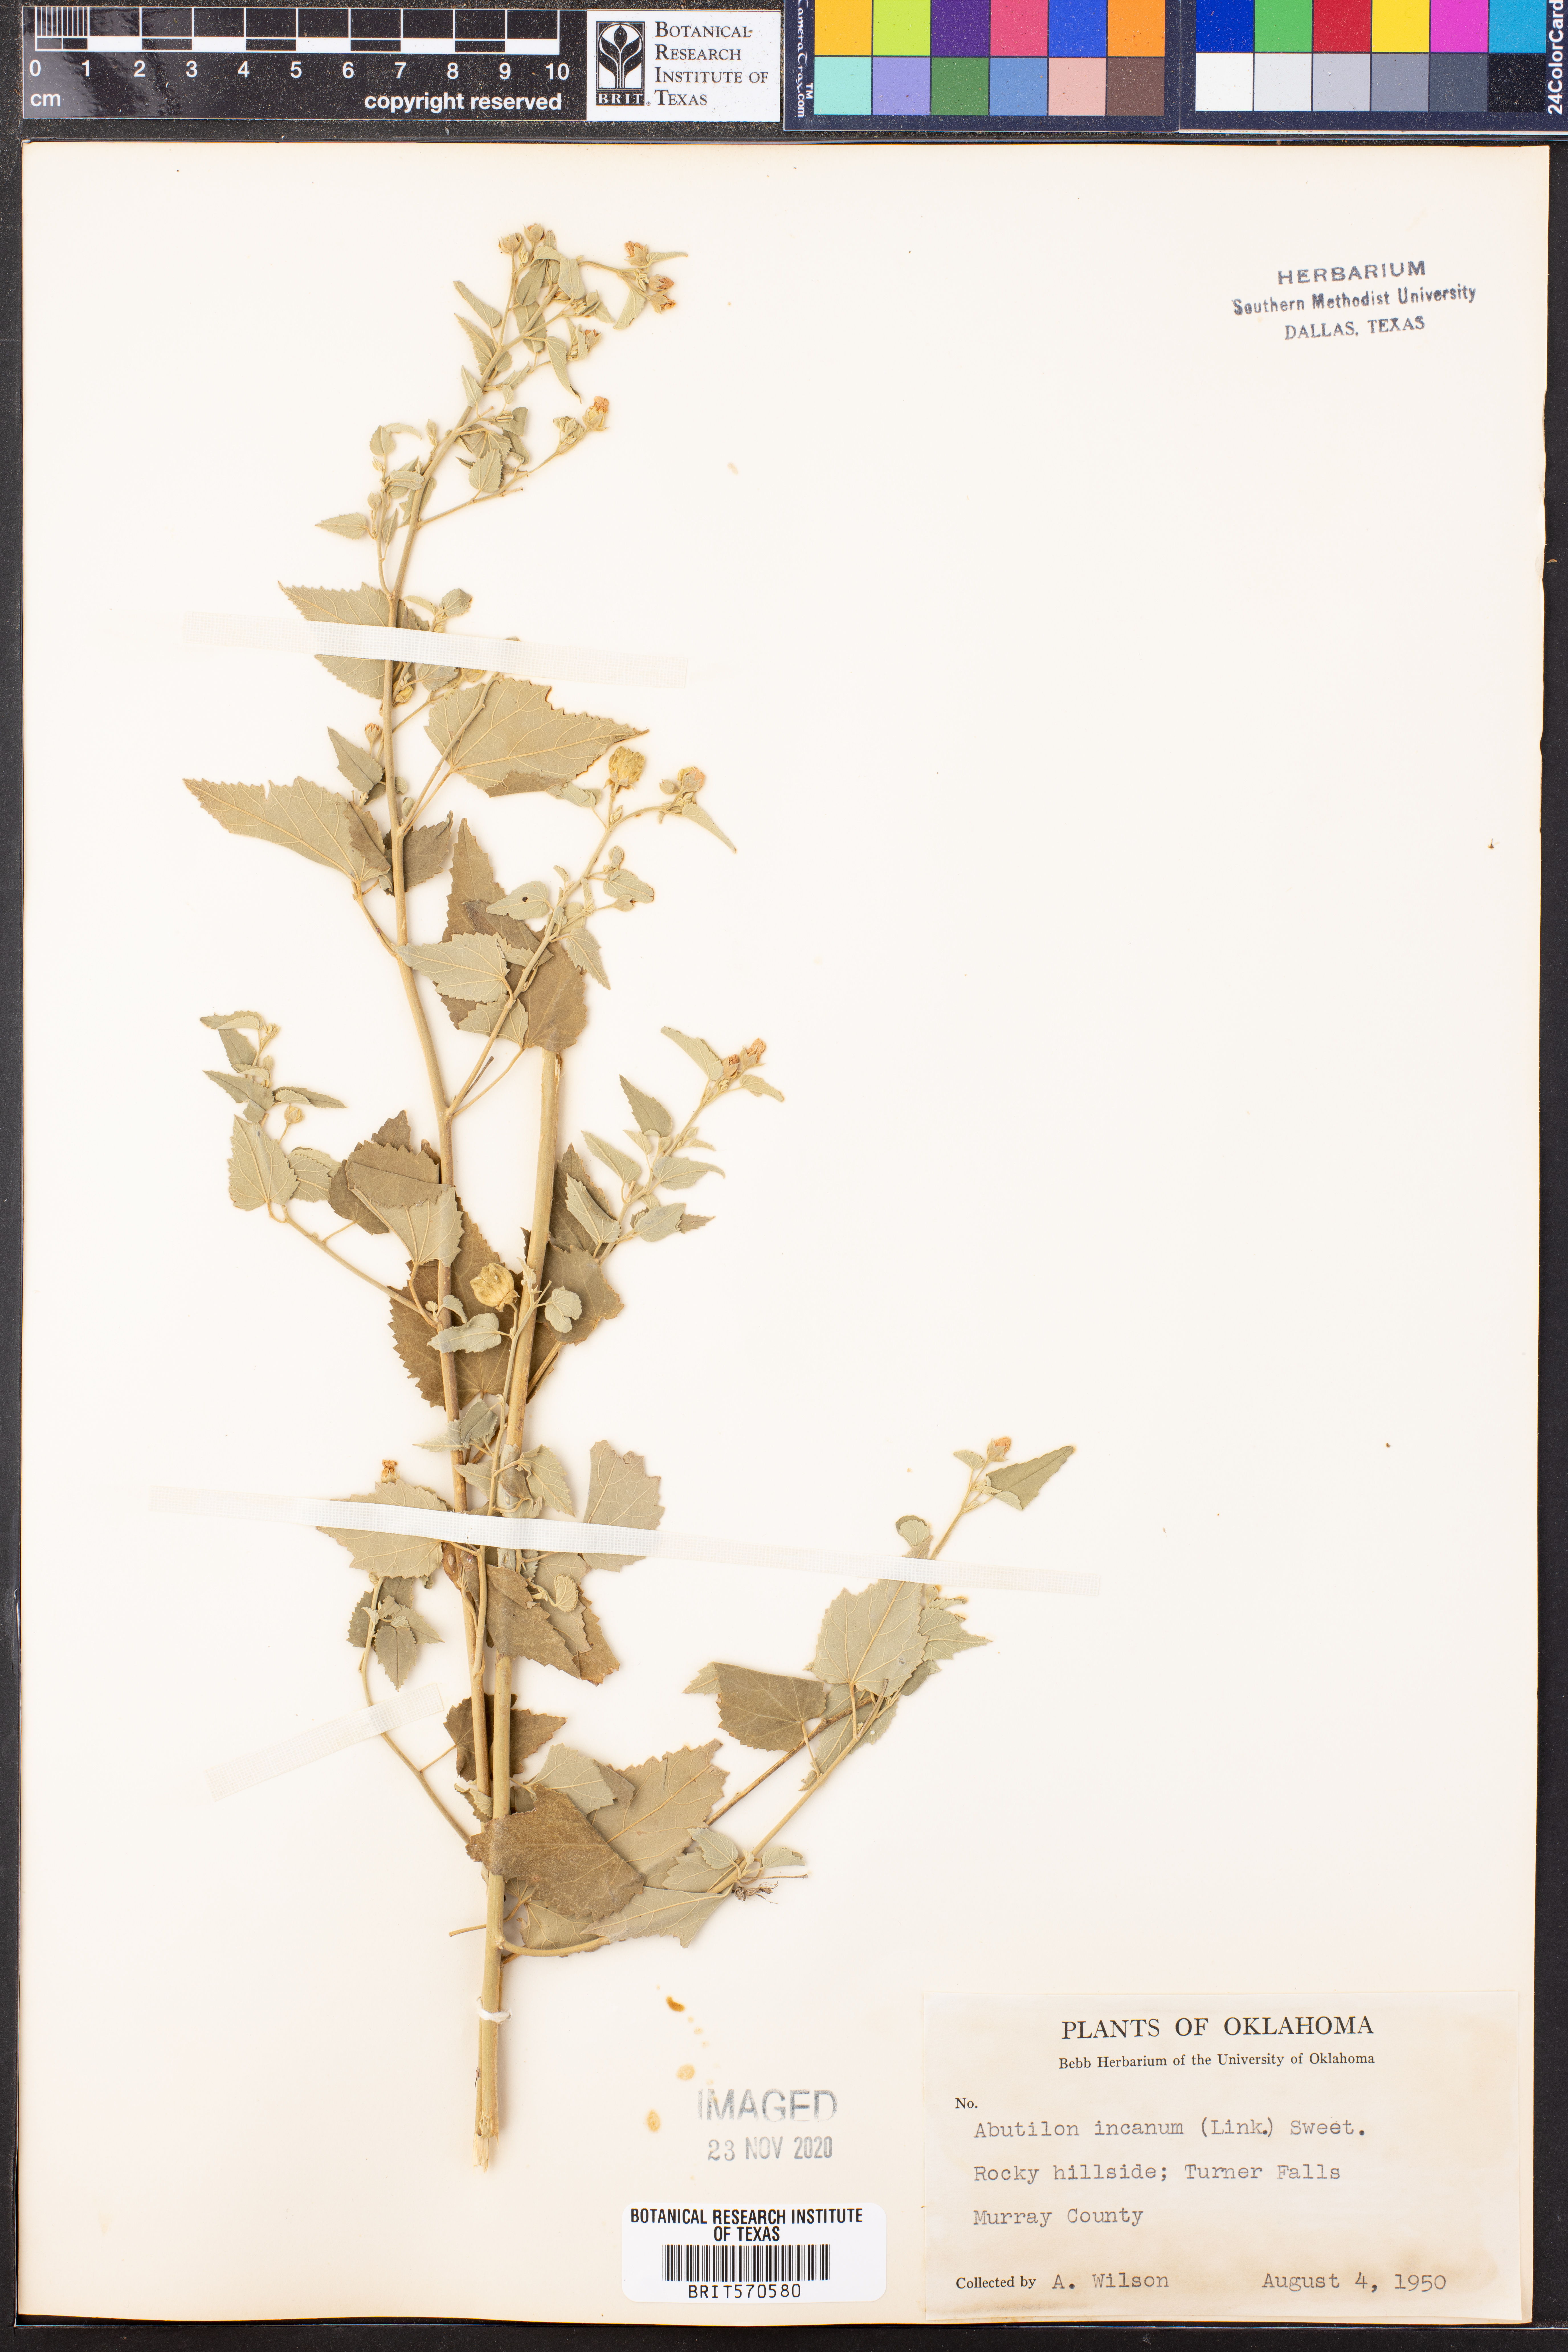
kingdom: Plantae
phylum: Tracheophyta
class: Magnoliopsida
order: Malvales
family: Malvaceae
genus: Abutilon
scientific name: Abutilon incanum
